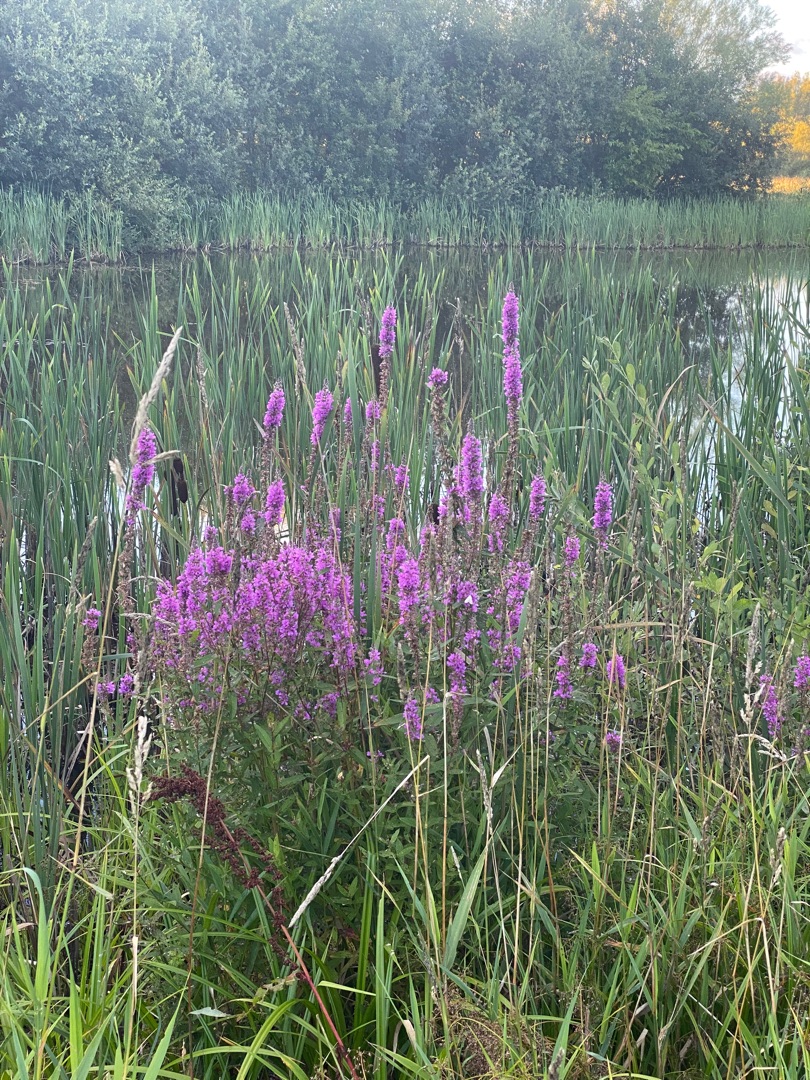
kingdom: Plantae
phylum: Tracheophyta
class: Magnoliopsida
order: Myrtales
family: Lythraceae
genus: Lythrum
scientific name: Lythrum salicaria
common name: Kattehale
